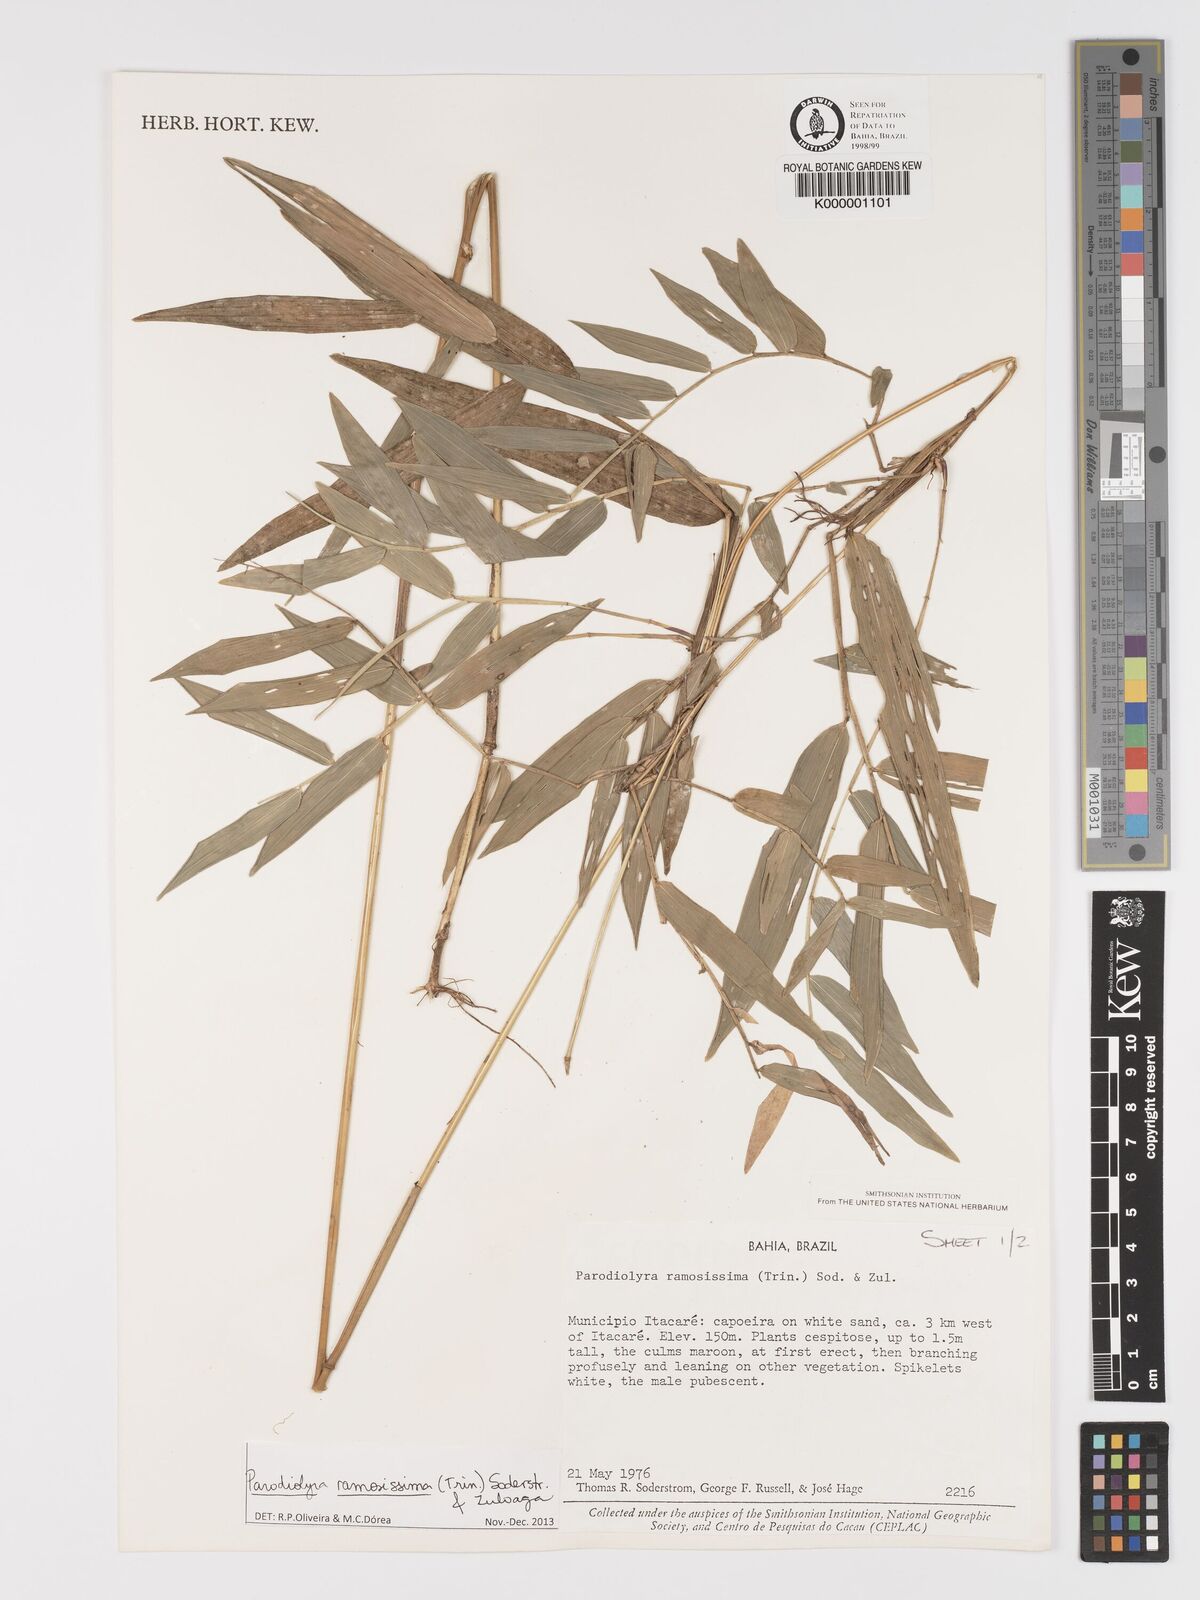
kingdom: Plantae
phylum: Tracheophyta
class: Liliopsida
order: Poales
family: Poaceae
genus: Parodiolyra
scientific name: Parodiolyra ramosissima
